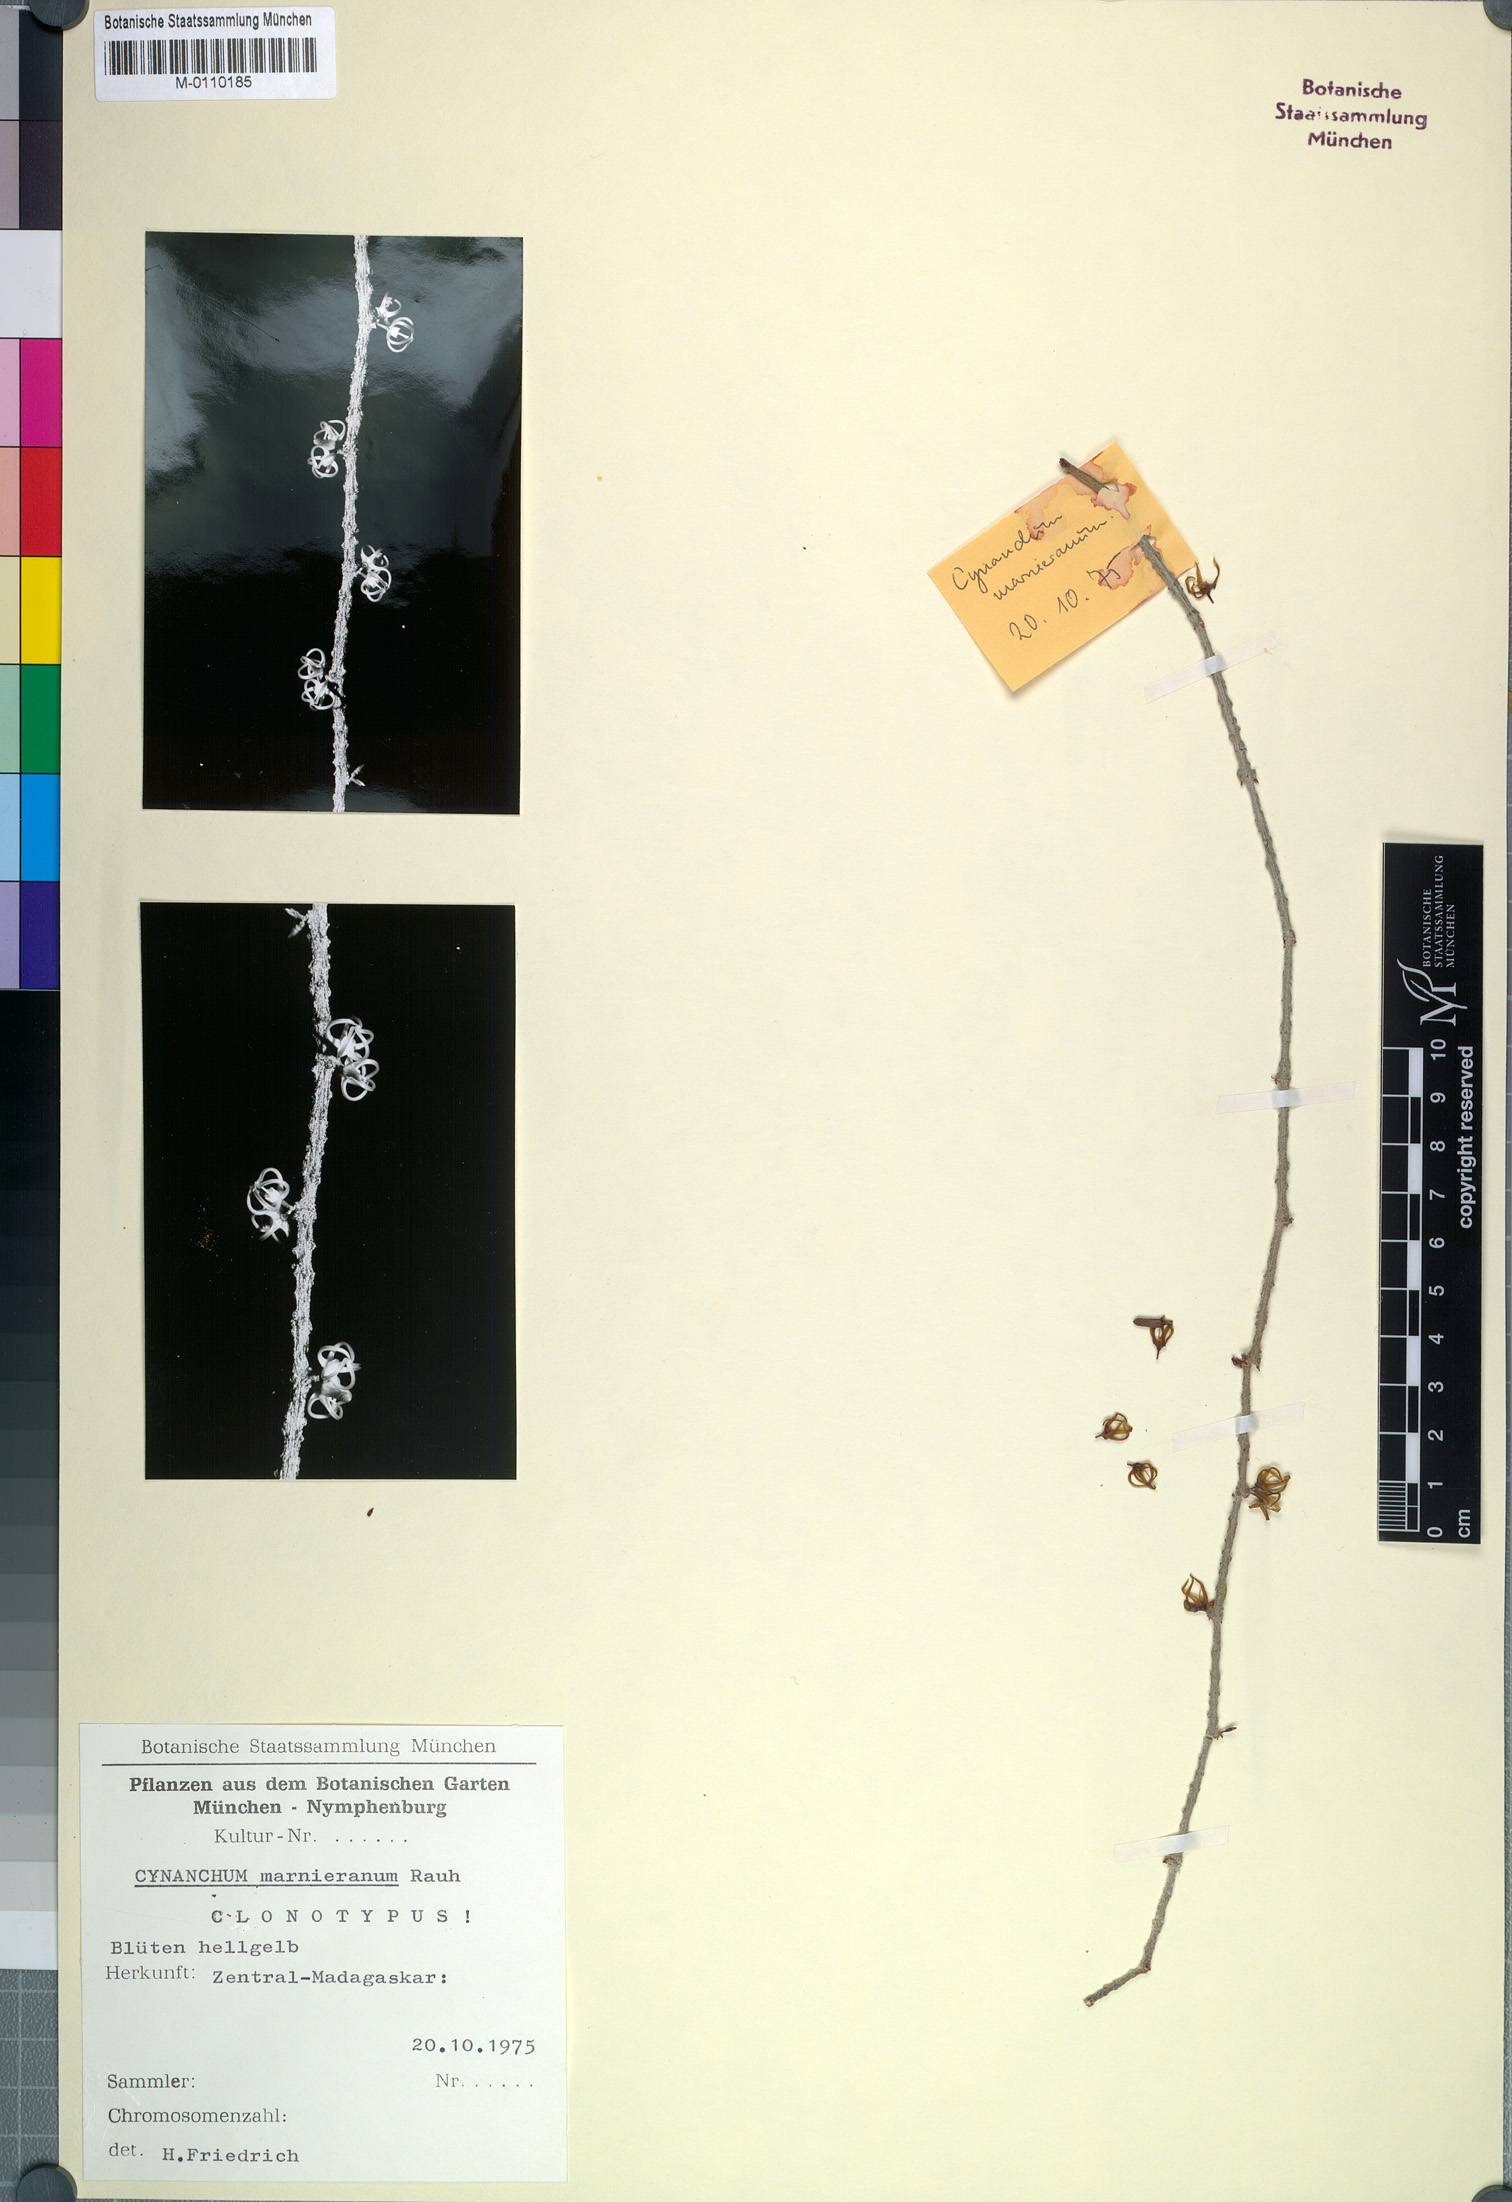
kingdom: Plantae
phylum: Tracheophyta
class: Magnoliopsida
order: Gentianales
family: Apocynaceae
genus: Cynanchum
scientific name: Cynanchum marnieranum
